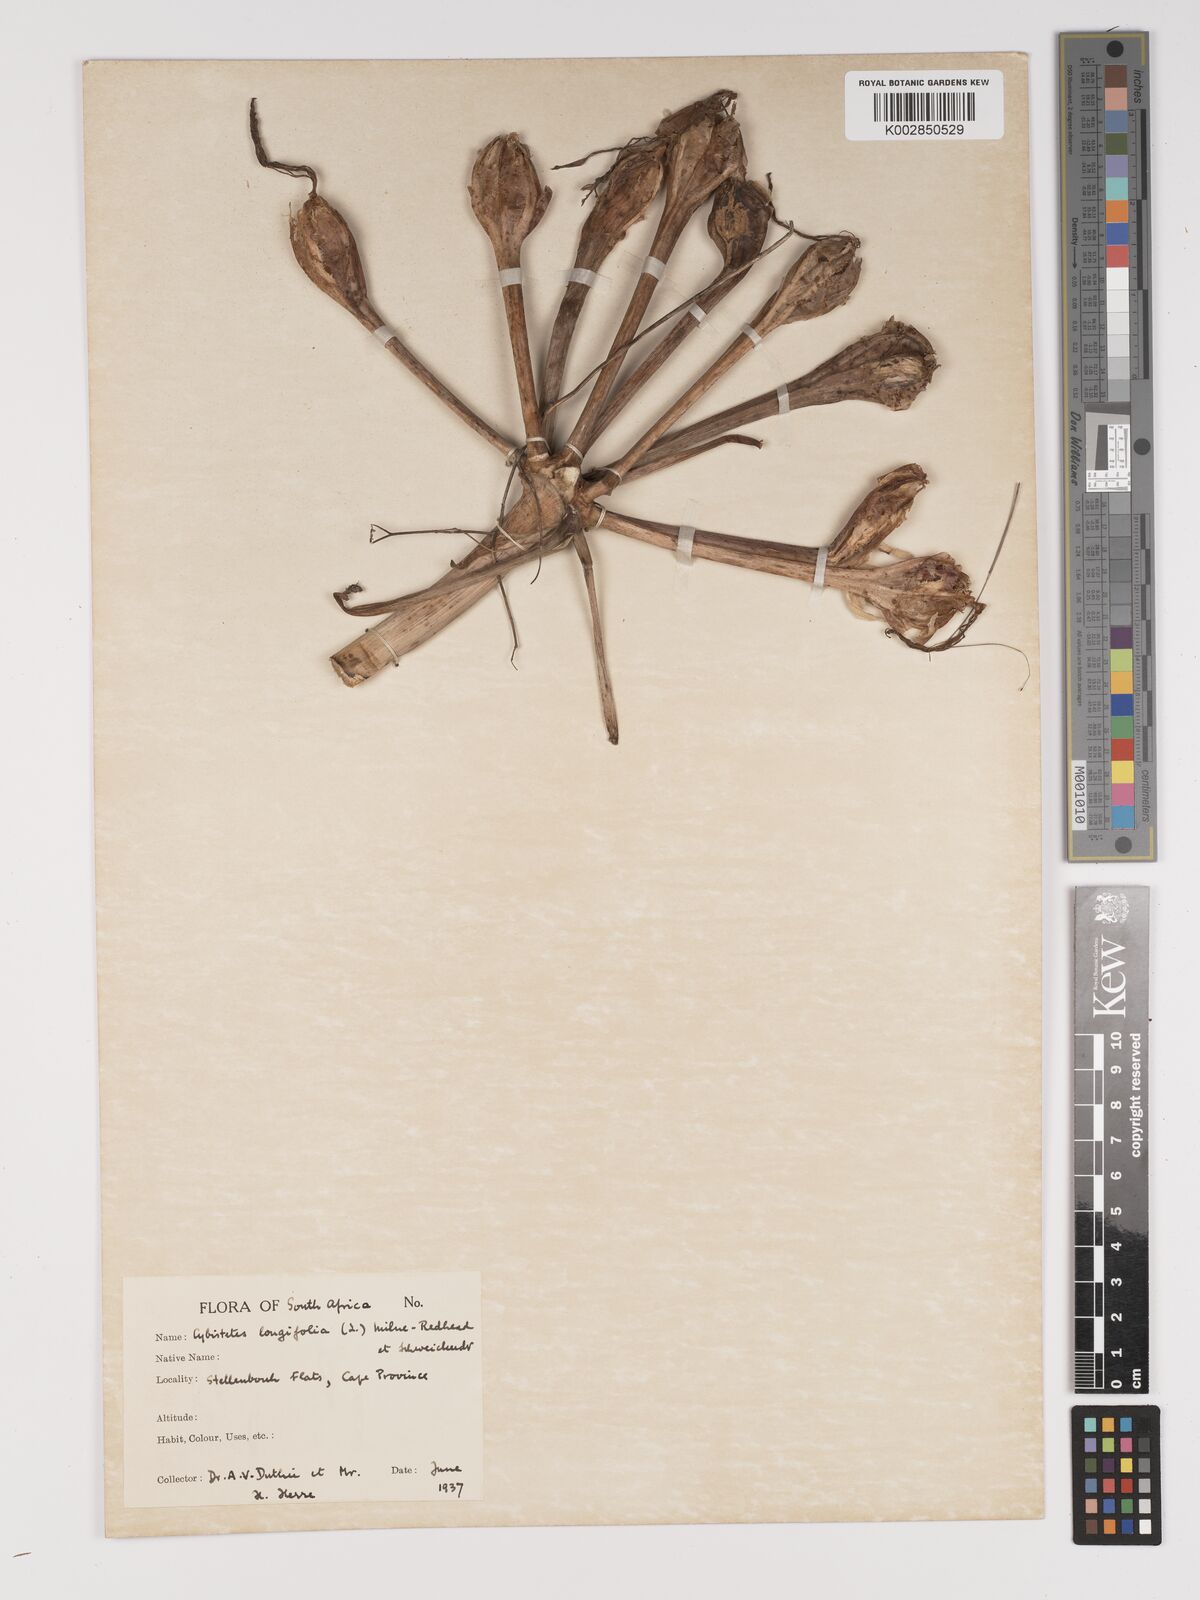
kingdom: Plantae
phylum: Tracheophyta
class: Liliopsida
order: Asparagales
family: Amaryllidaceae
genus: Ammocharis
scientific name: Ammocharis longifolia
